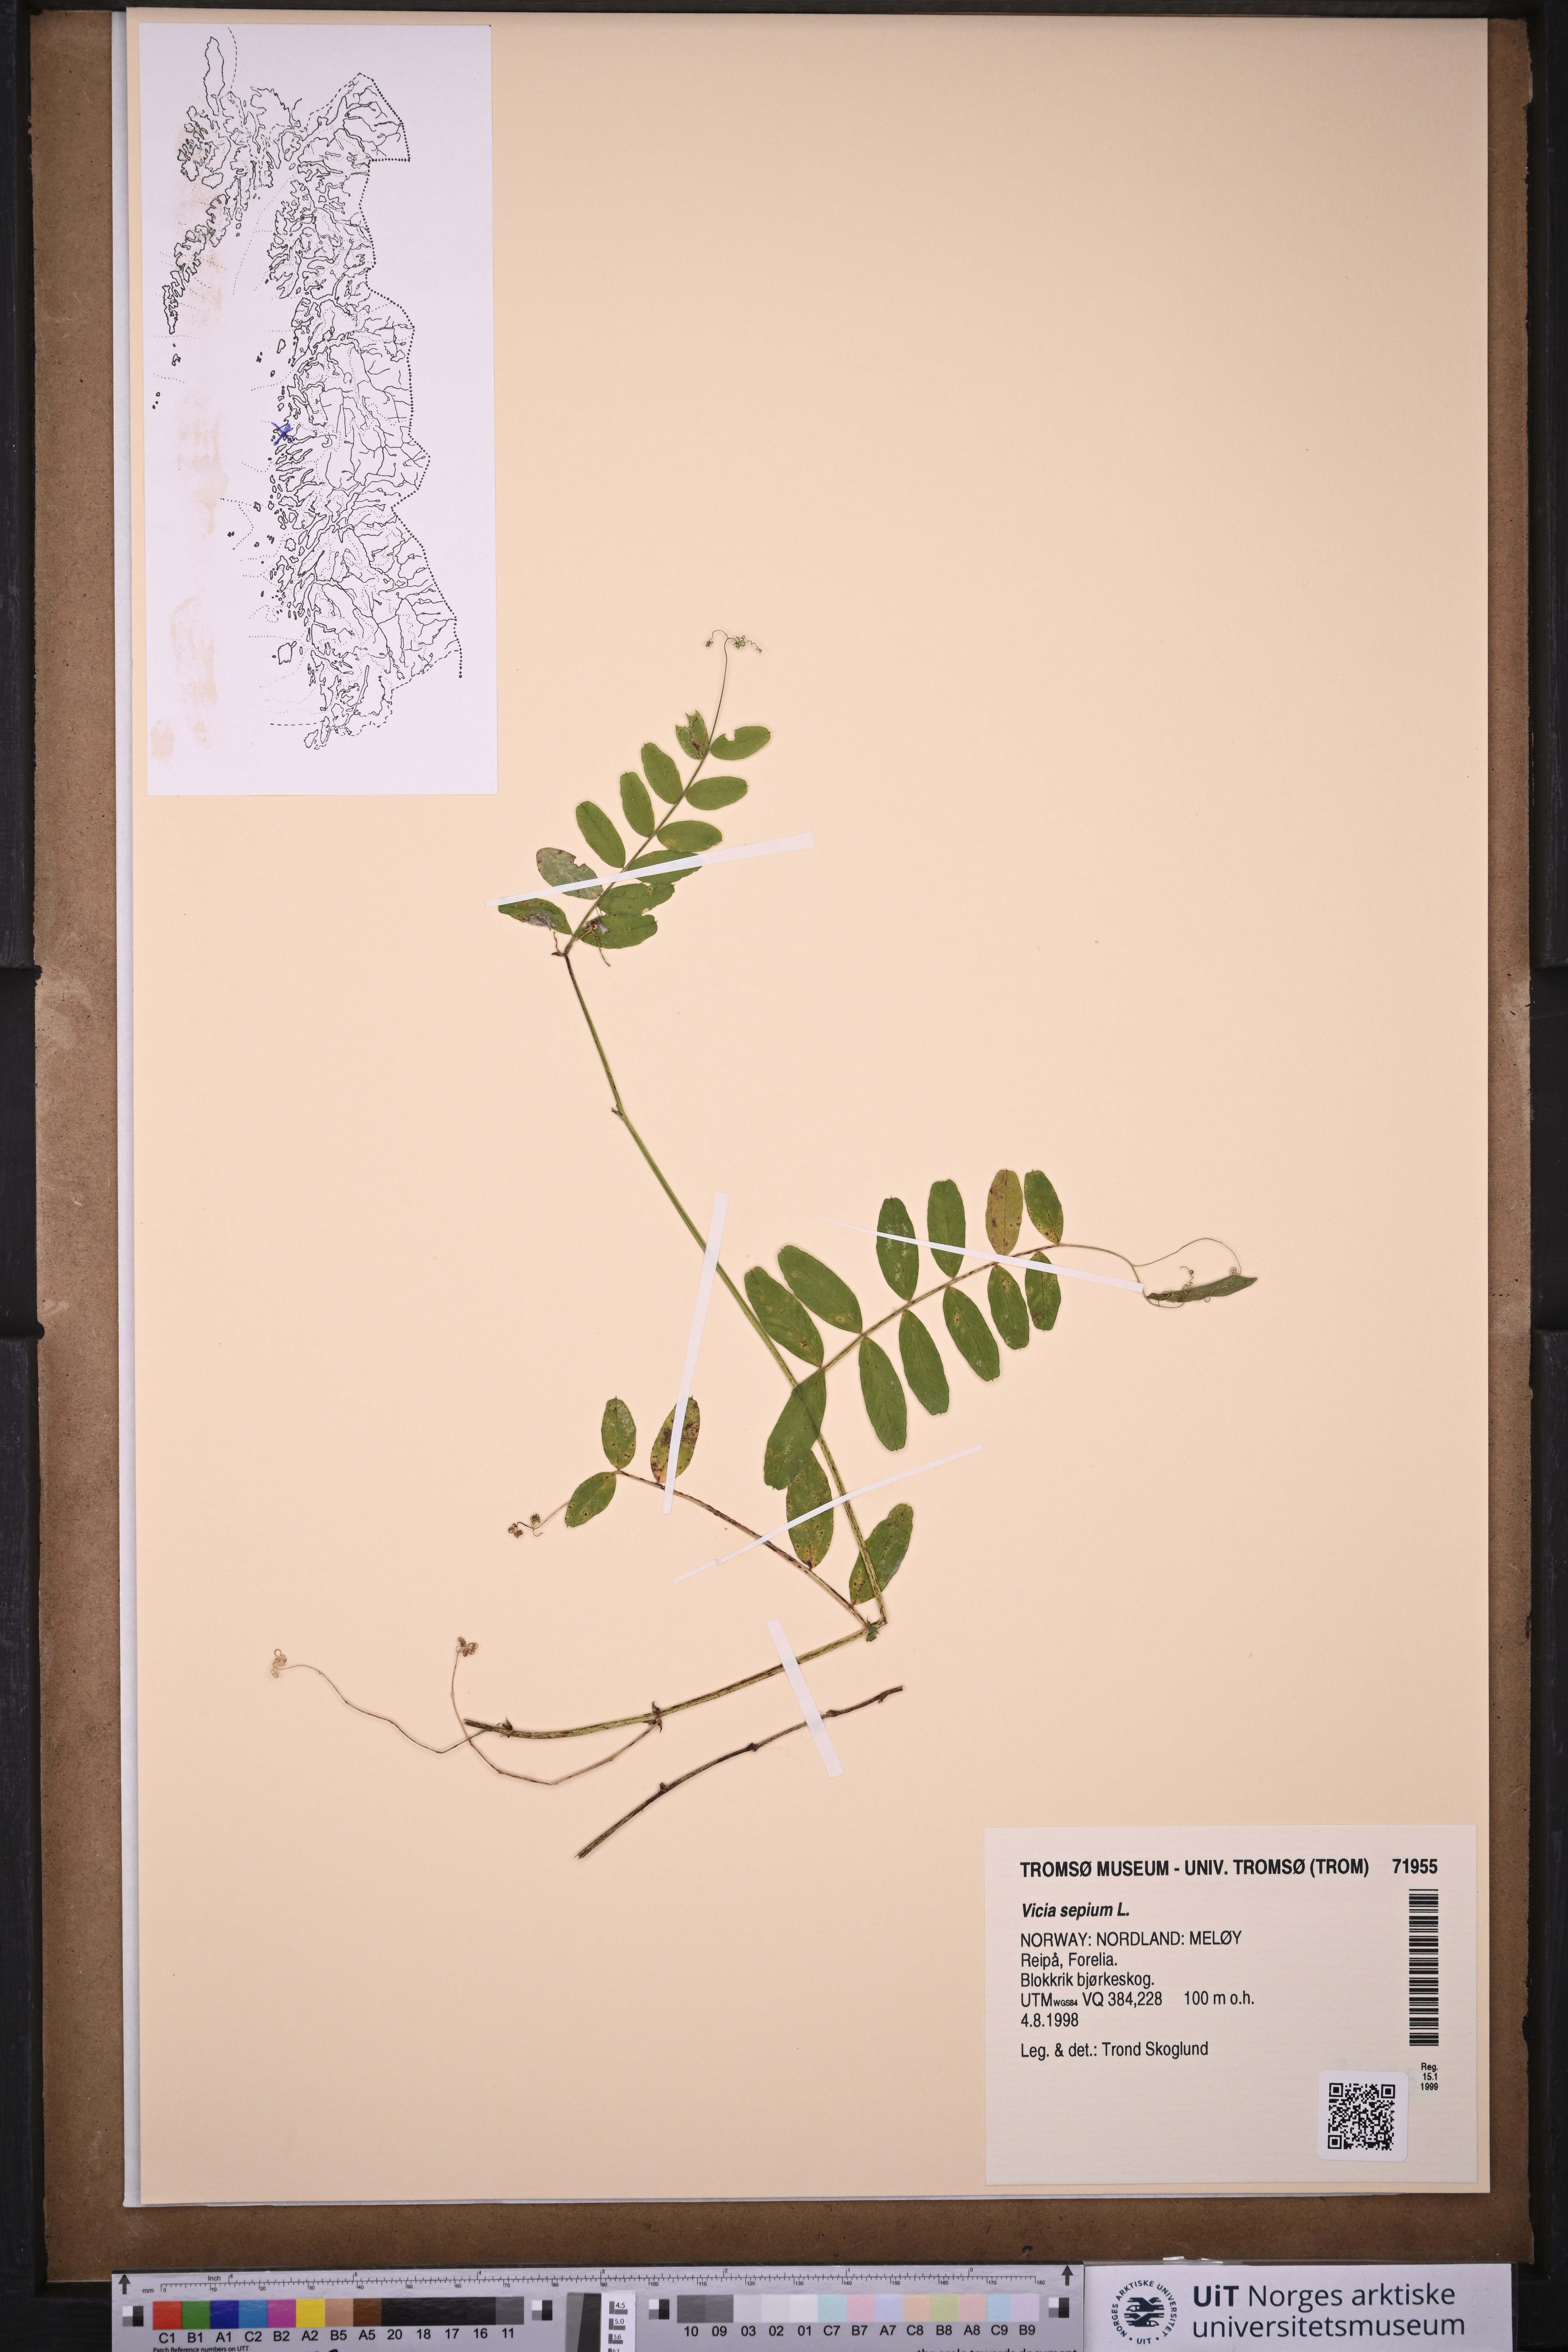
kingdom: Plantae
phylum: Tracheophyta
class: Magnoliopsida
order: Fabales
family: Fabaceae
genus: Vicia
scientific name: Vicia sepium
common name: Bush vetch
